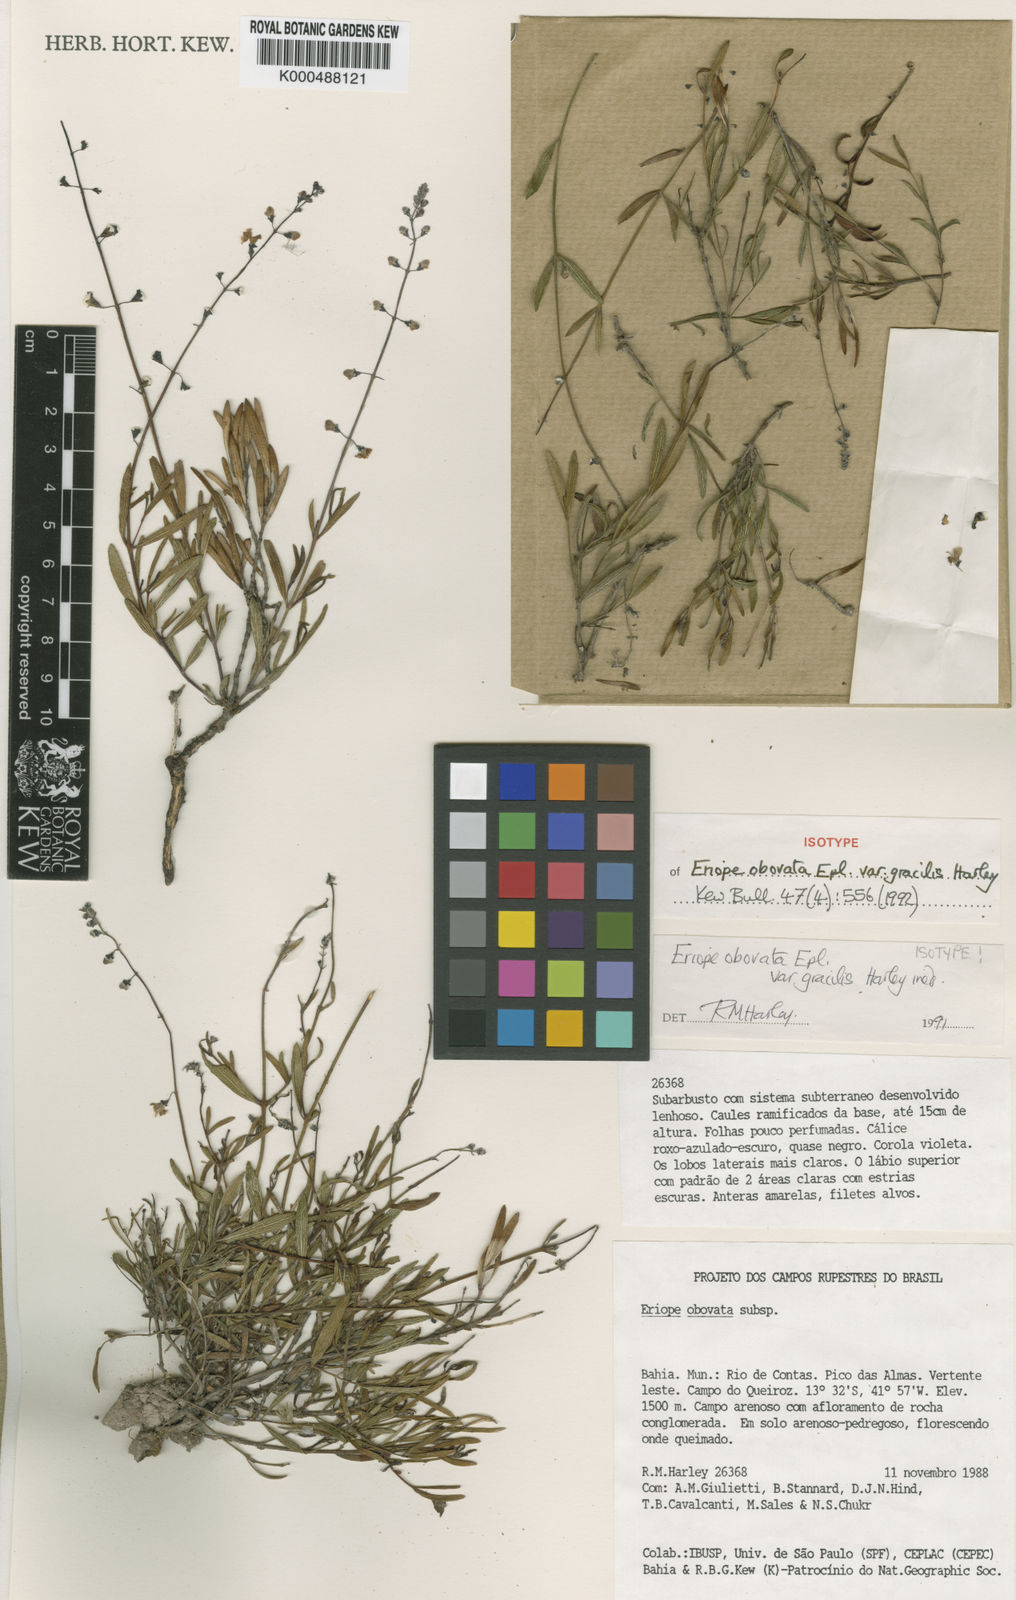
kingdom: Plantae
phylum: Tracheophyta
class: Magnoliopsida
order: Lamiales
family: Lamiaceae
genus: Eriope
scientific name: Eriope obovata
